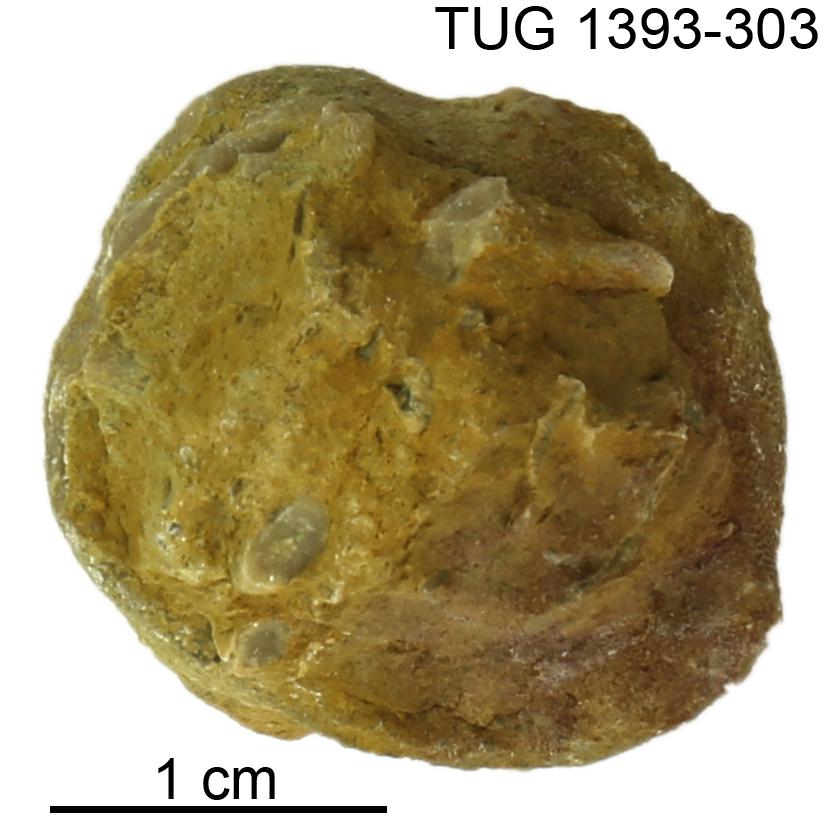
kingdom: Animalia
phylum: Bryozoa
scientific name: Bryozoa
